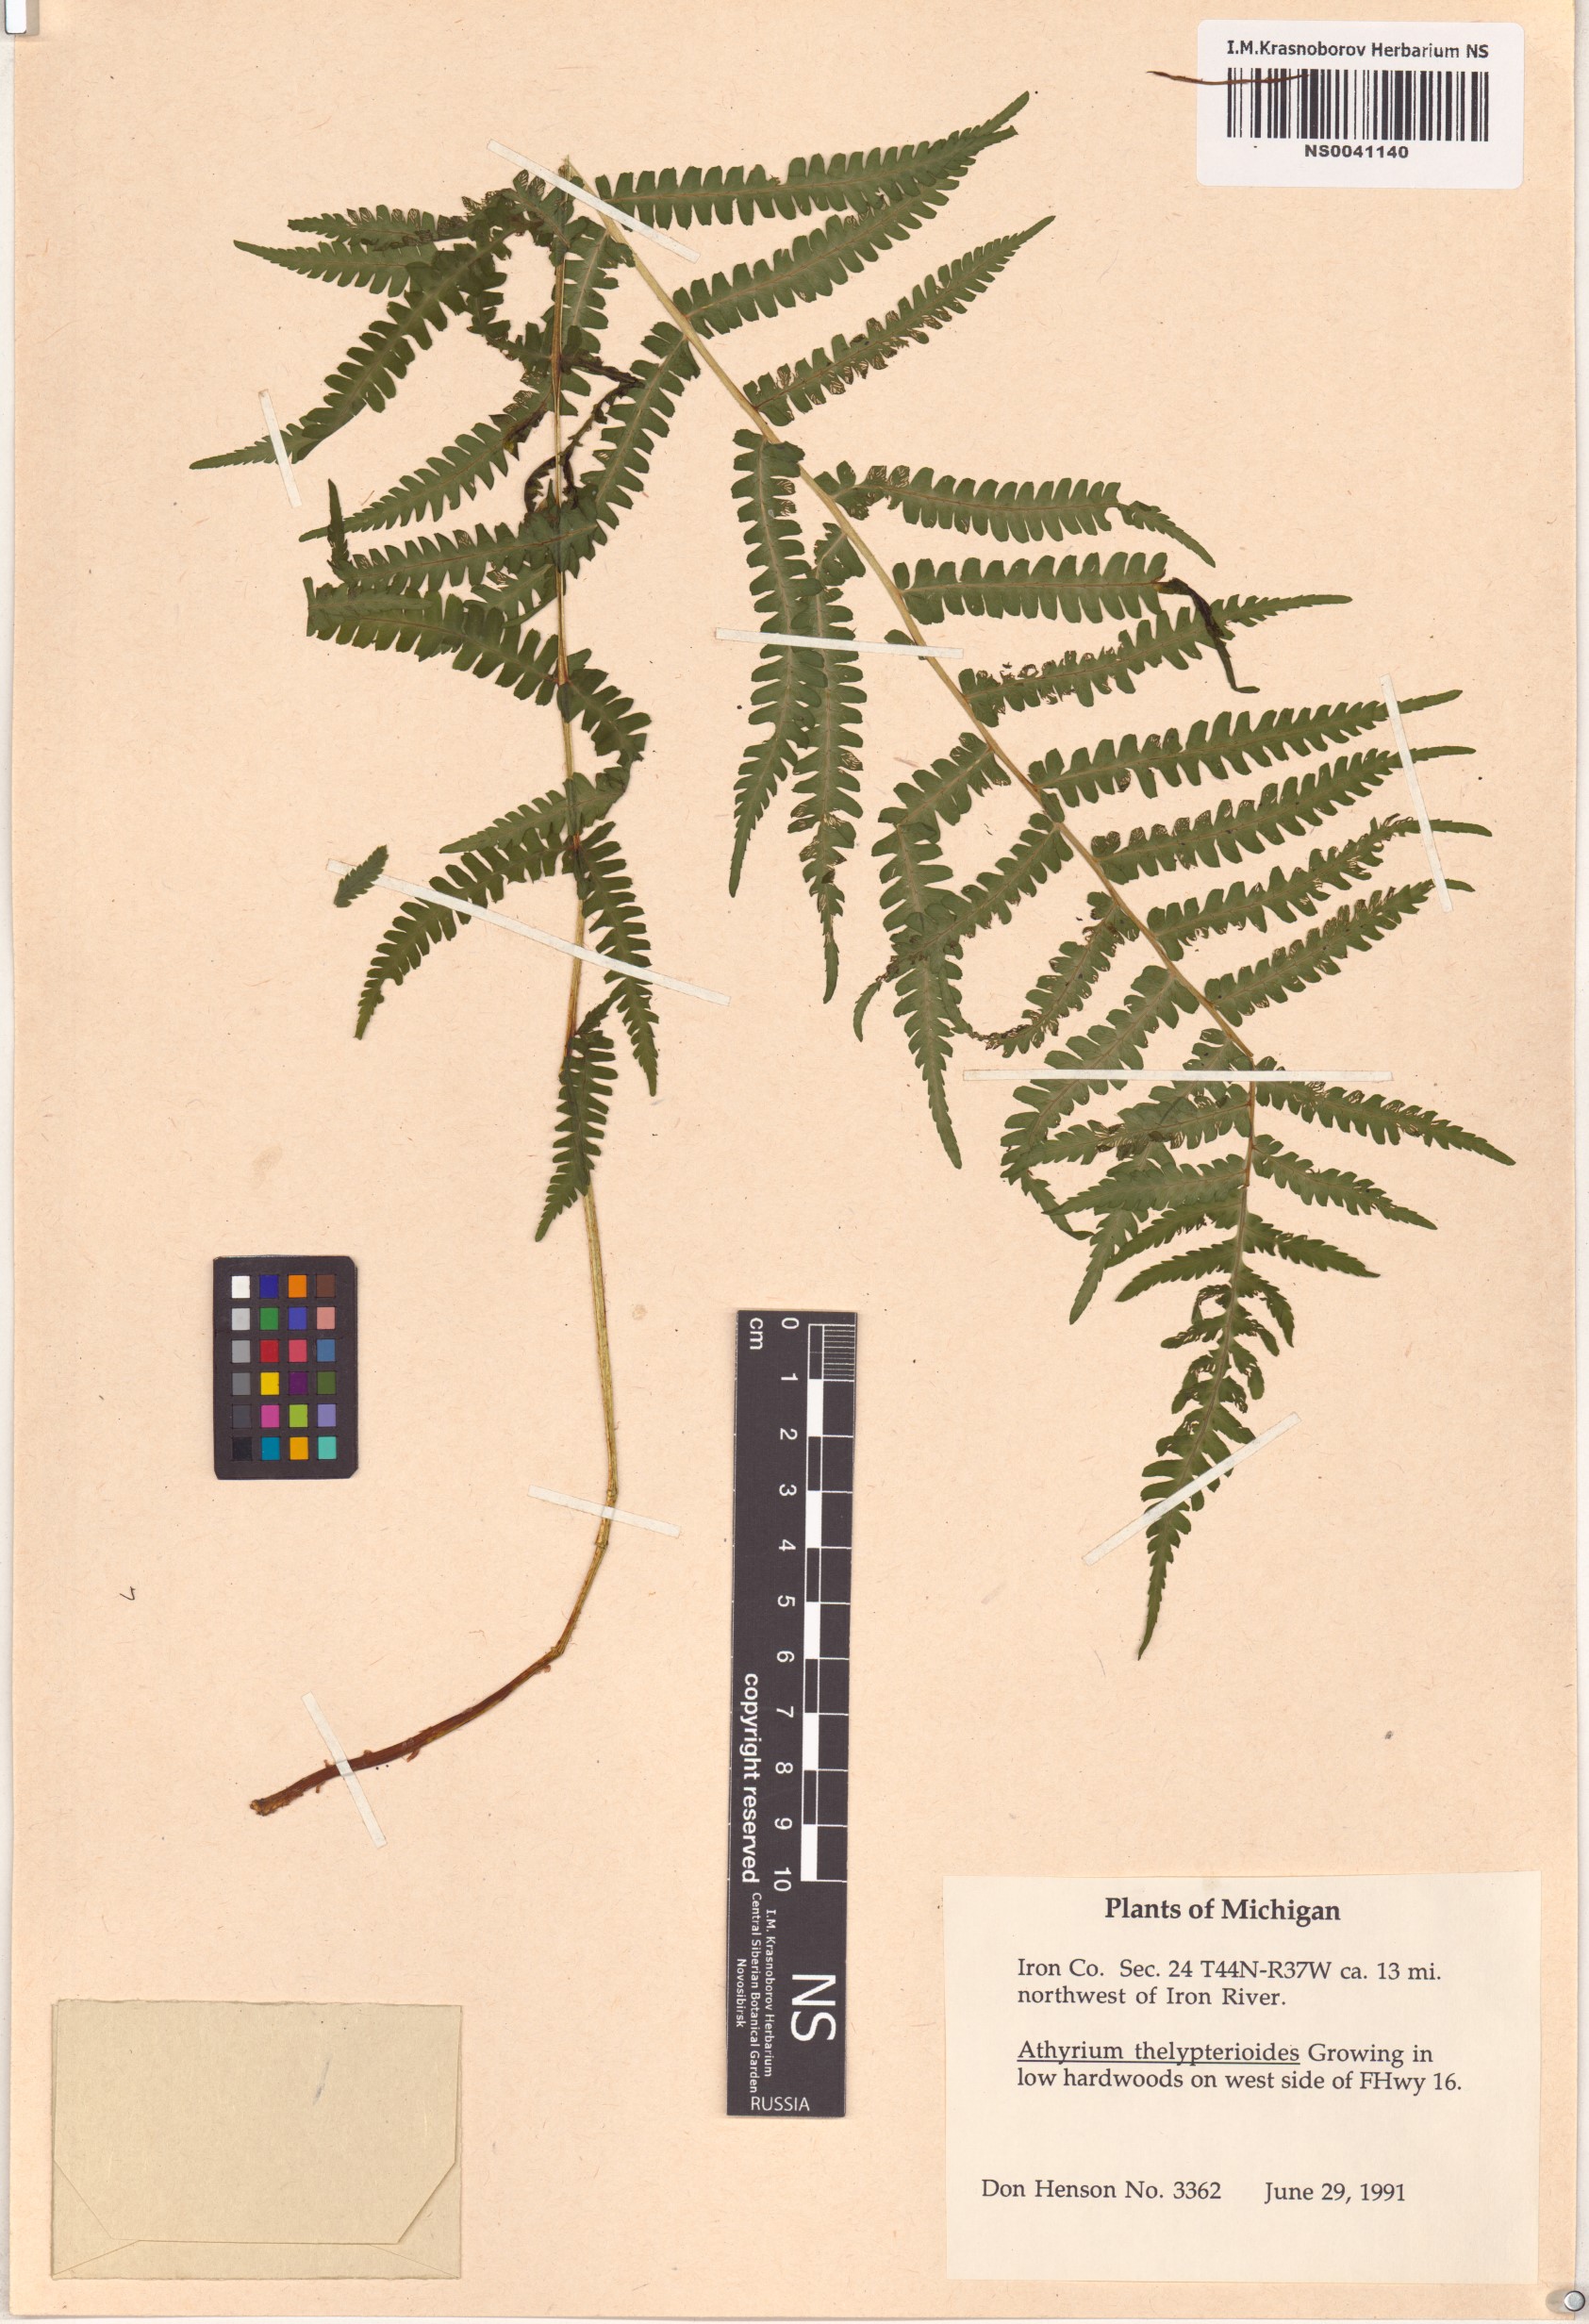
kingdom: Plantae
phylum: Tracheophyta
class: Polypodiopsida
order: Polypodiales
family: Athyriaceae
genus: Deparia
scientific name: Deparia acrostichoides
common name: Silver false spleenwort
